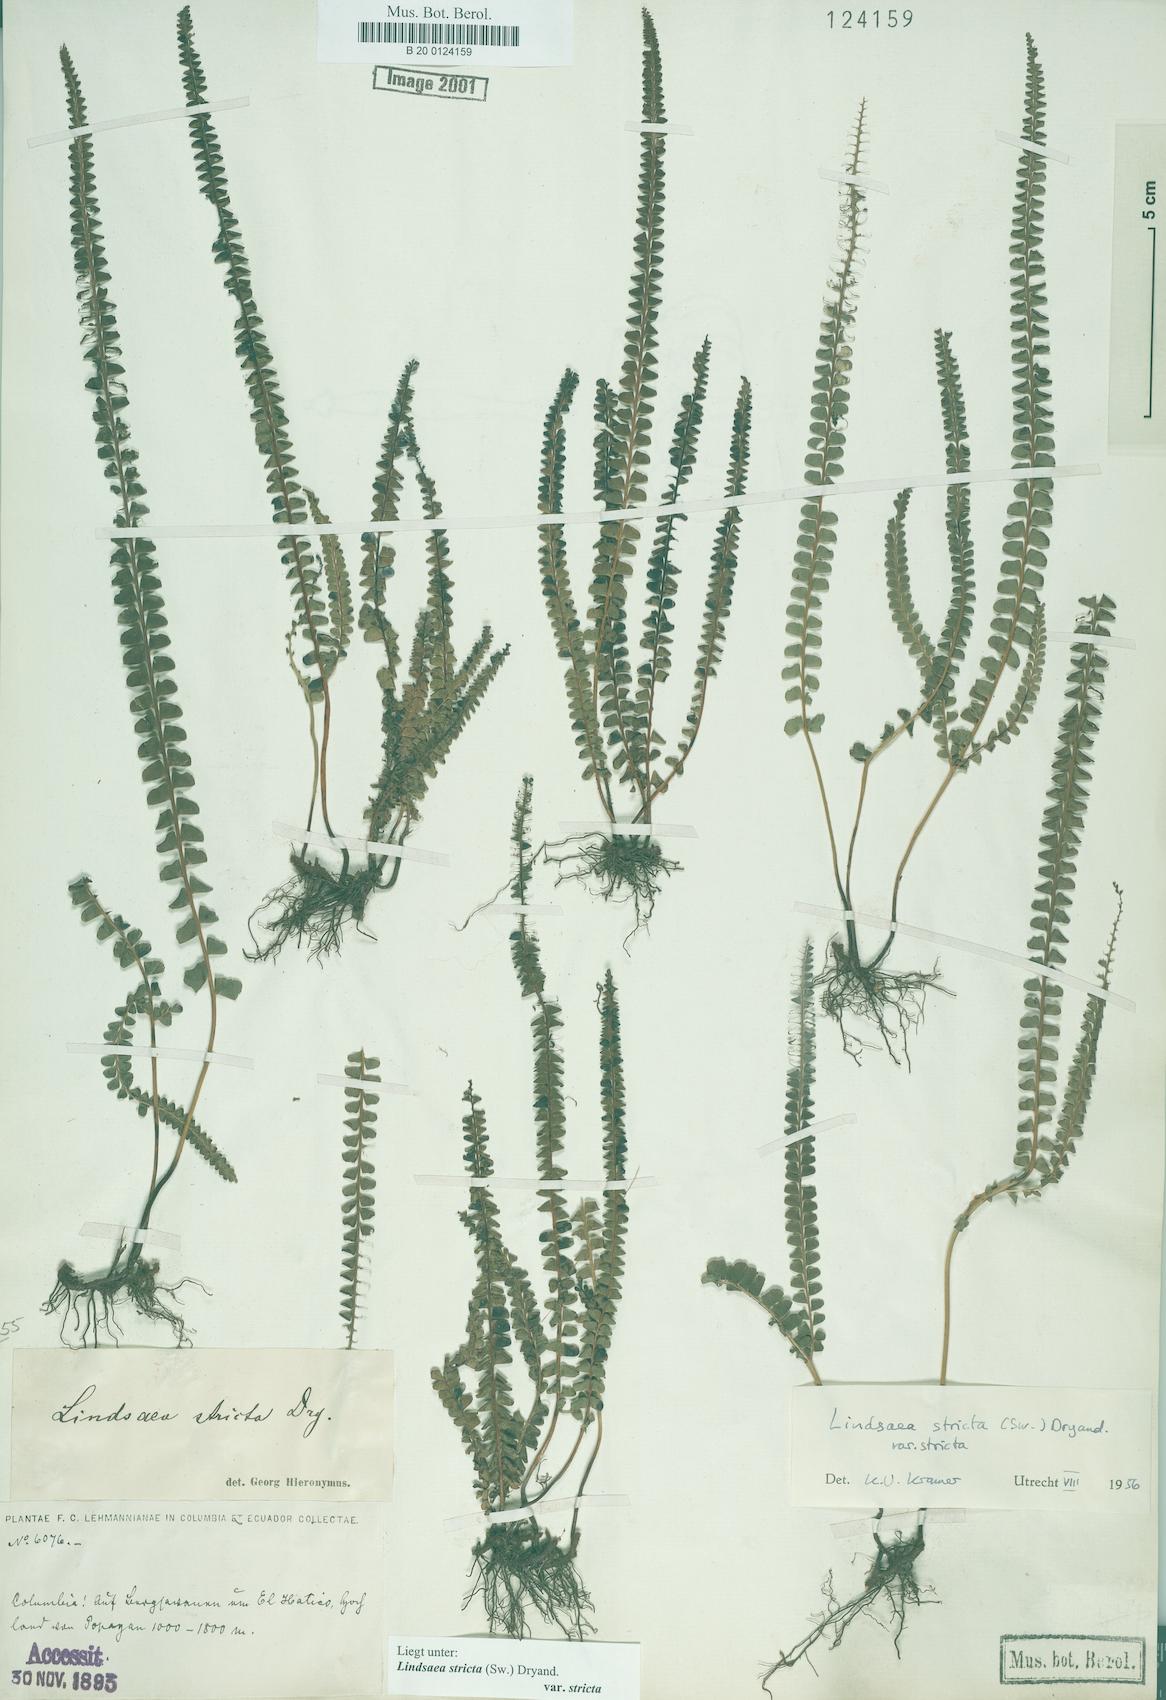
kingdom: Plantae
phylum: Tracheophyta
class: Polypodiopsida
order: Polypodiales
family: Lindsaeaceae
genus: Lindsaea
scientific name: Lindsaea stricta
